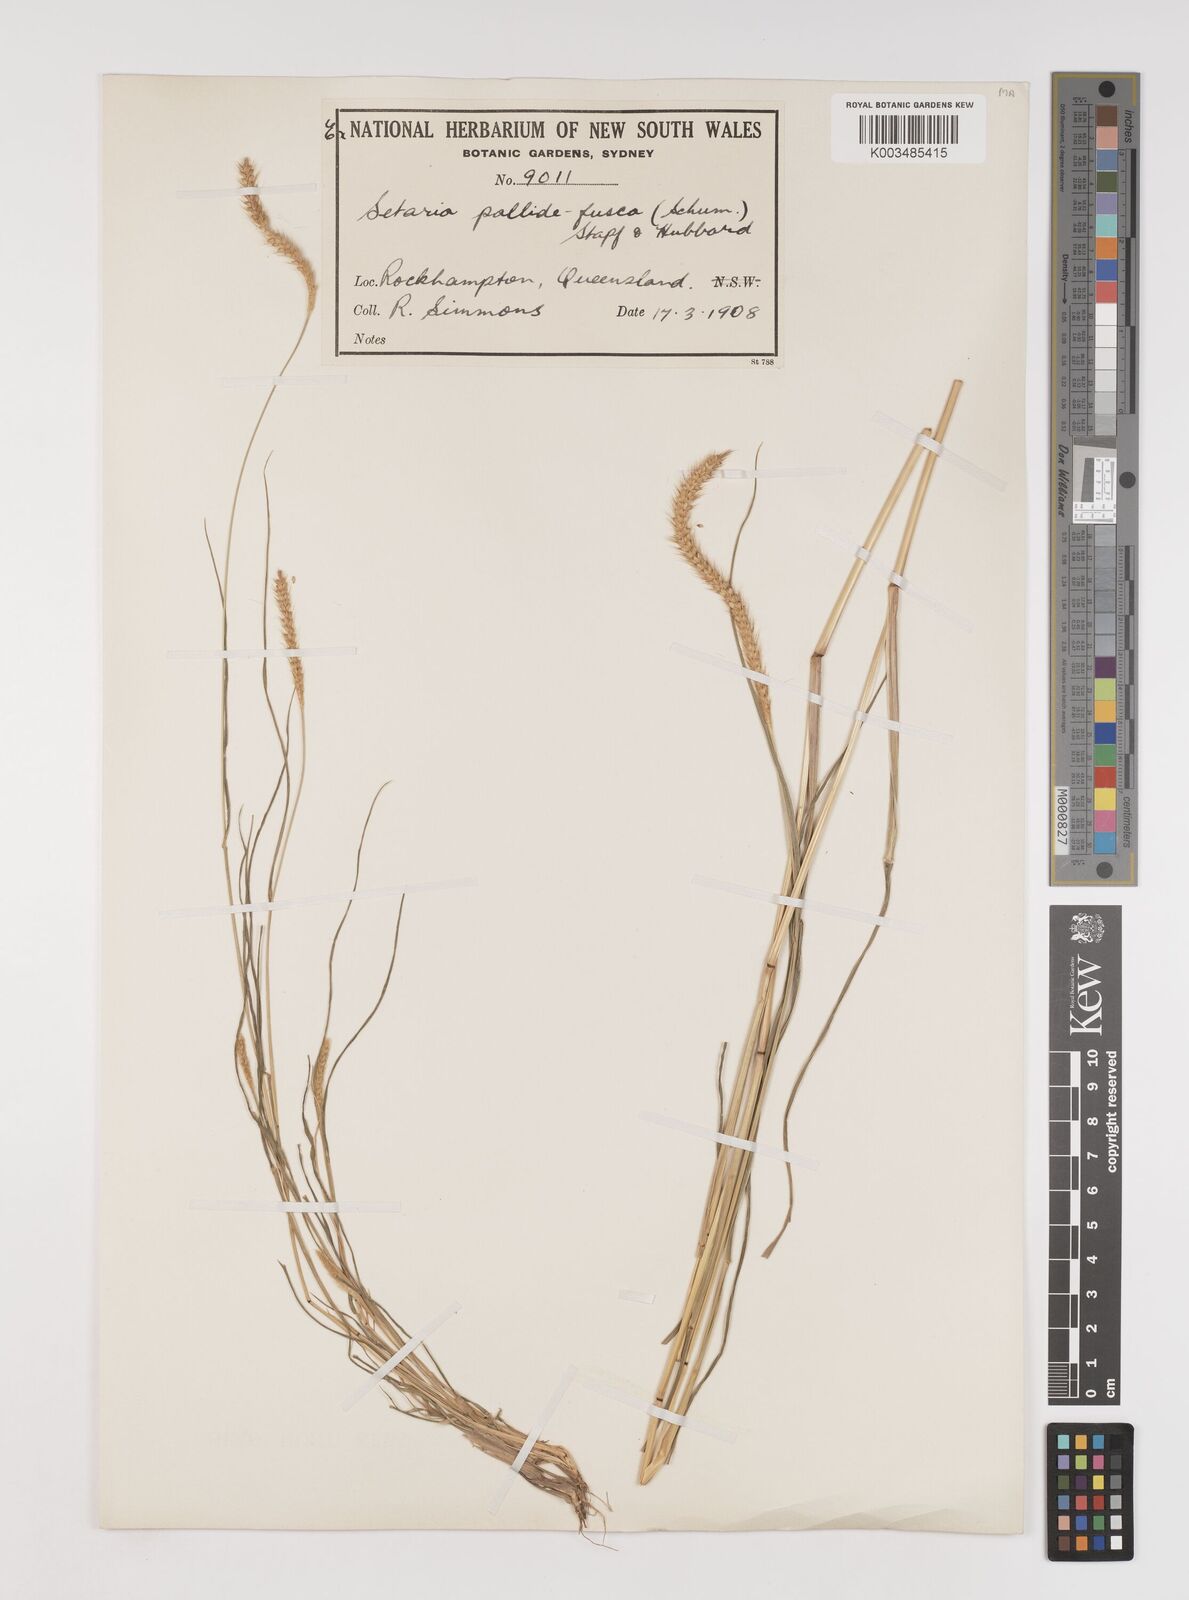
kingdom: Plantae
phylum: Tracheophyta
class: Liliopsida
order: Poales
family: Poaceae
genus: Setaria
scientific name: Setaria pumila
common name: Yellow bristle-grass
